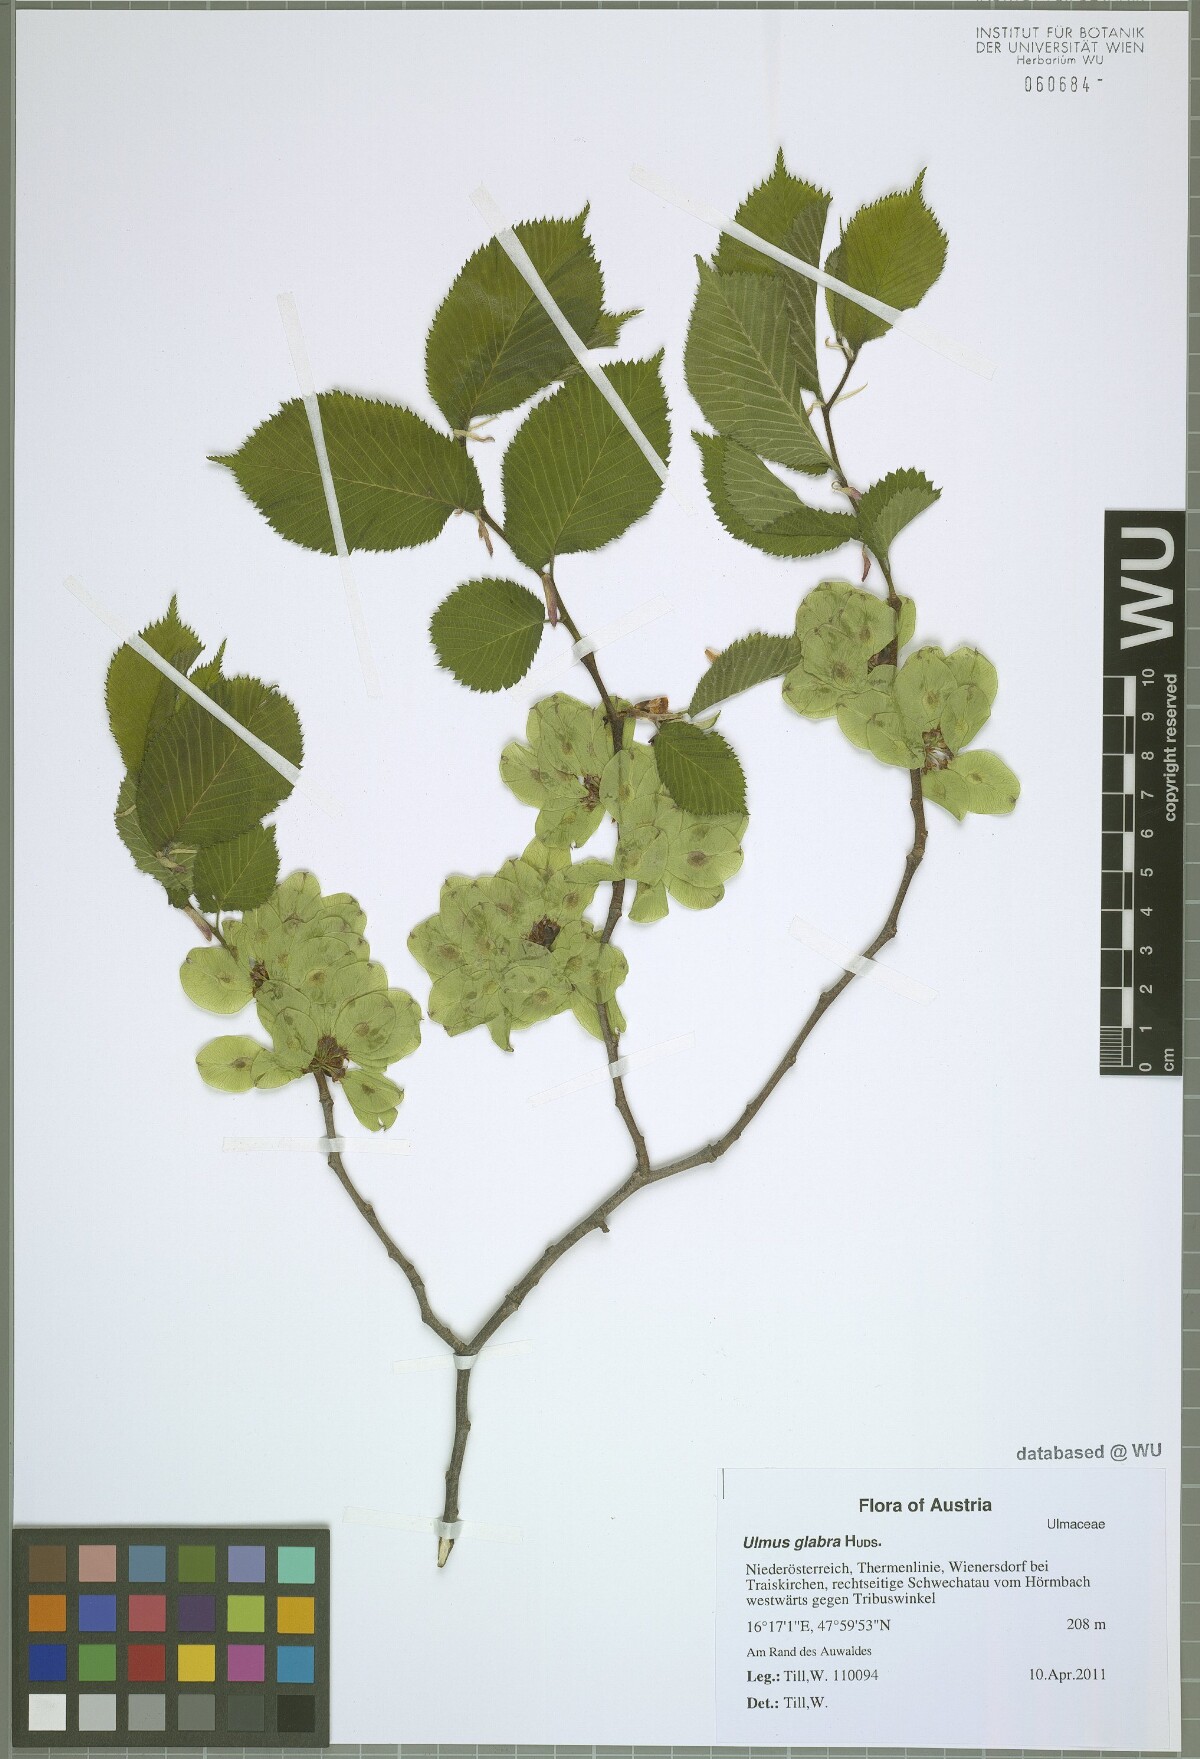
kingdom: Plantae
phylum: Tracheophyta
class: Magnoliopsida
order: Rosales
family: Ulmaceae
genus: Ulmus
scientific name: Ulmus glabra
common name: Wych elm
